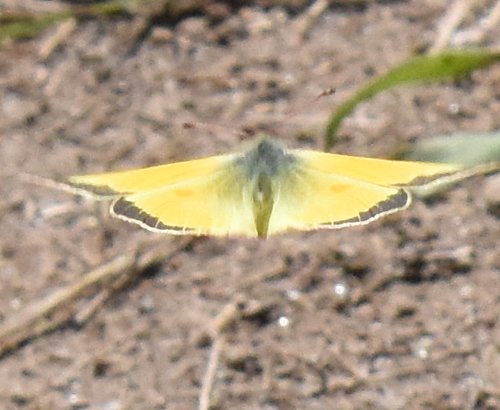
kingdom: Animalia
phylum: Arthropoda
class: Insecta
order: Lepidoptera
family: Pieridae
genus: Colias
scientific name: Colias eurytheme
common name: Orange Sulphur
